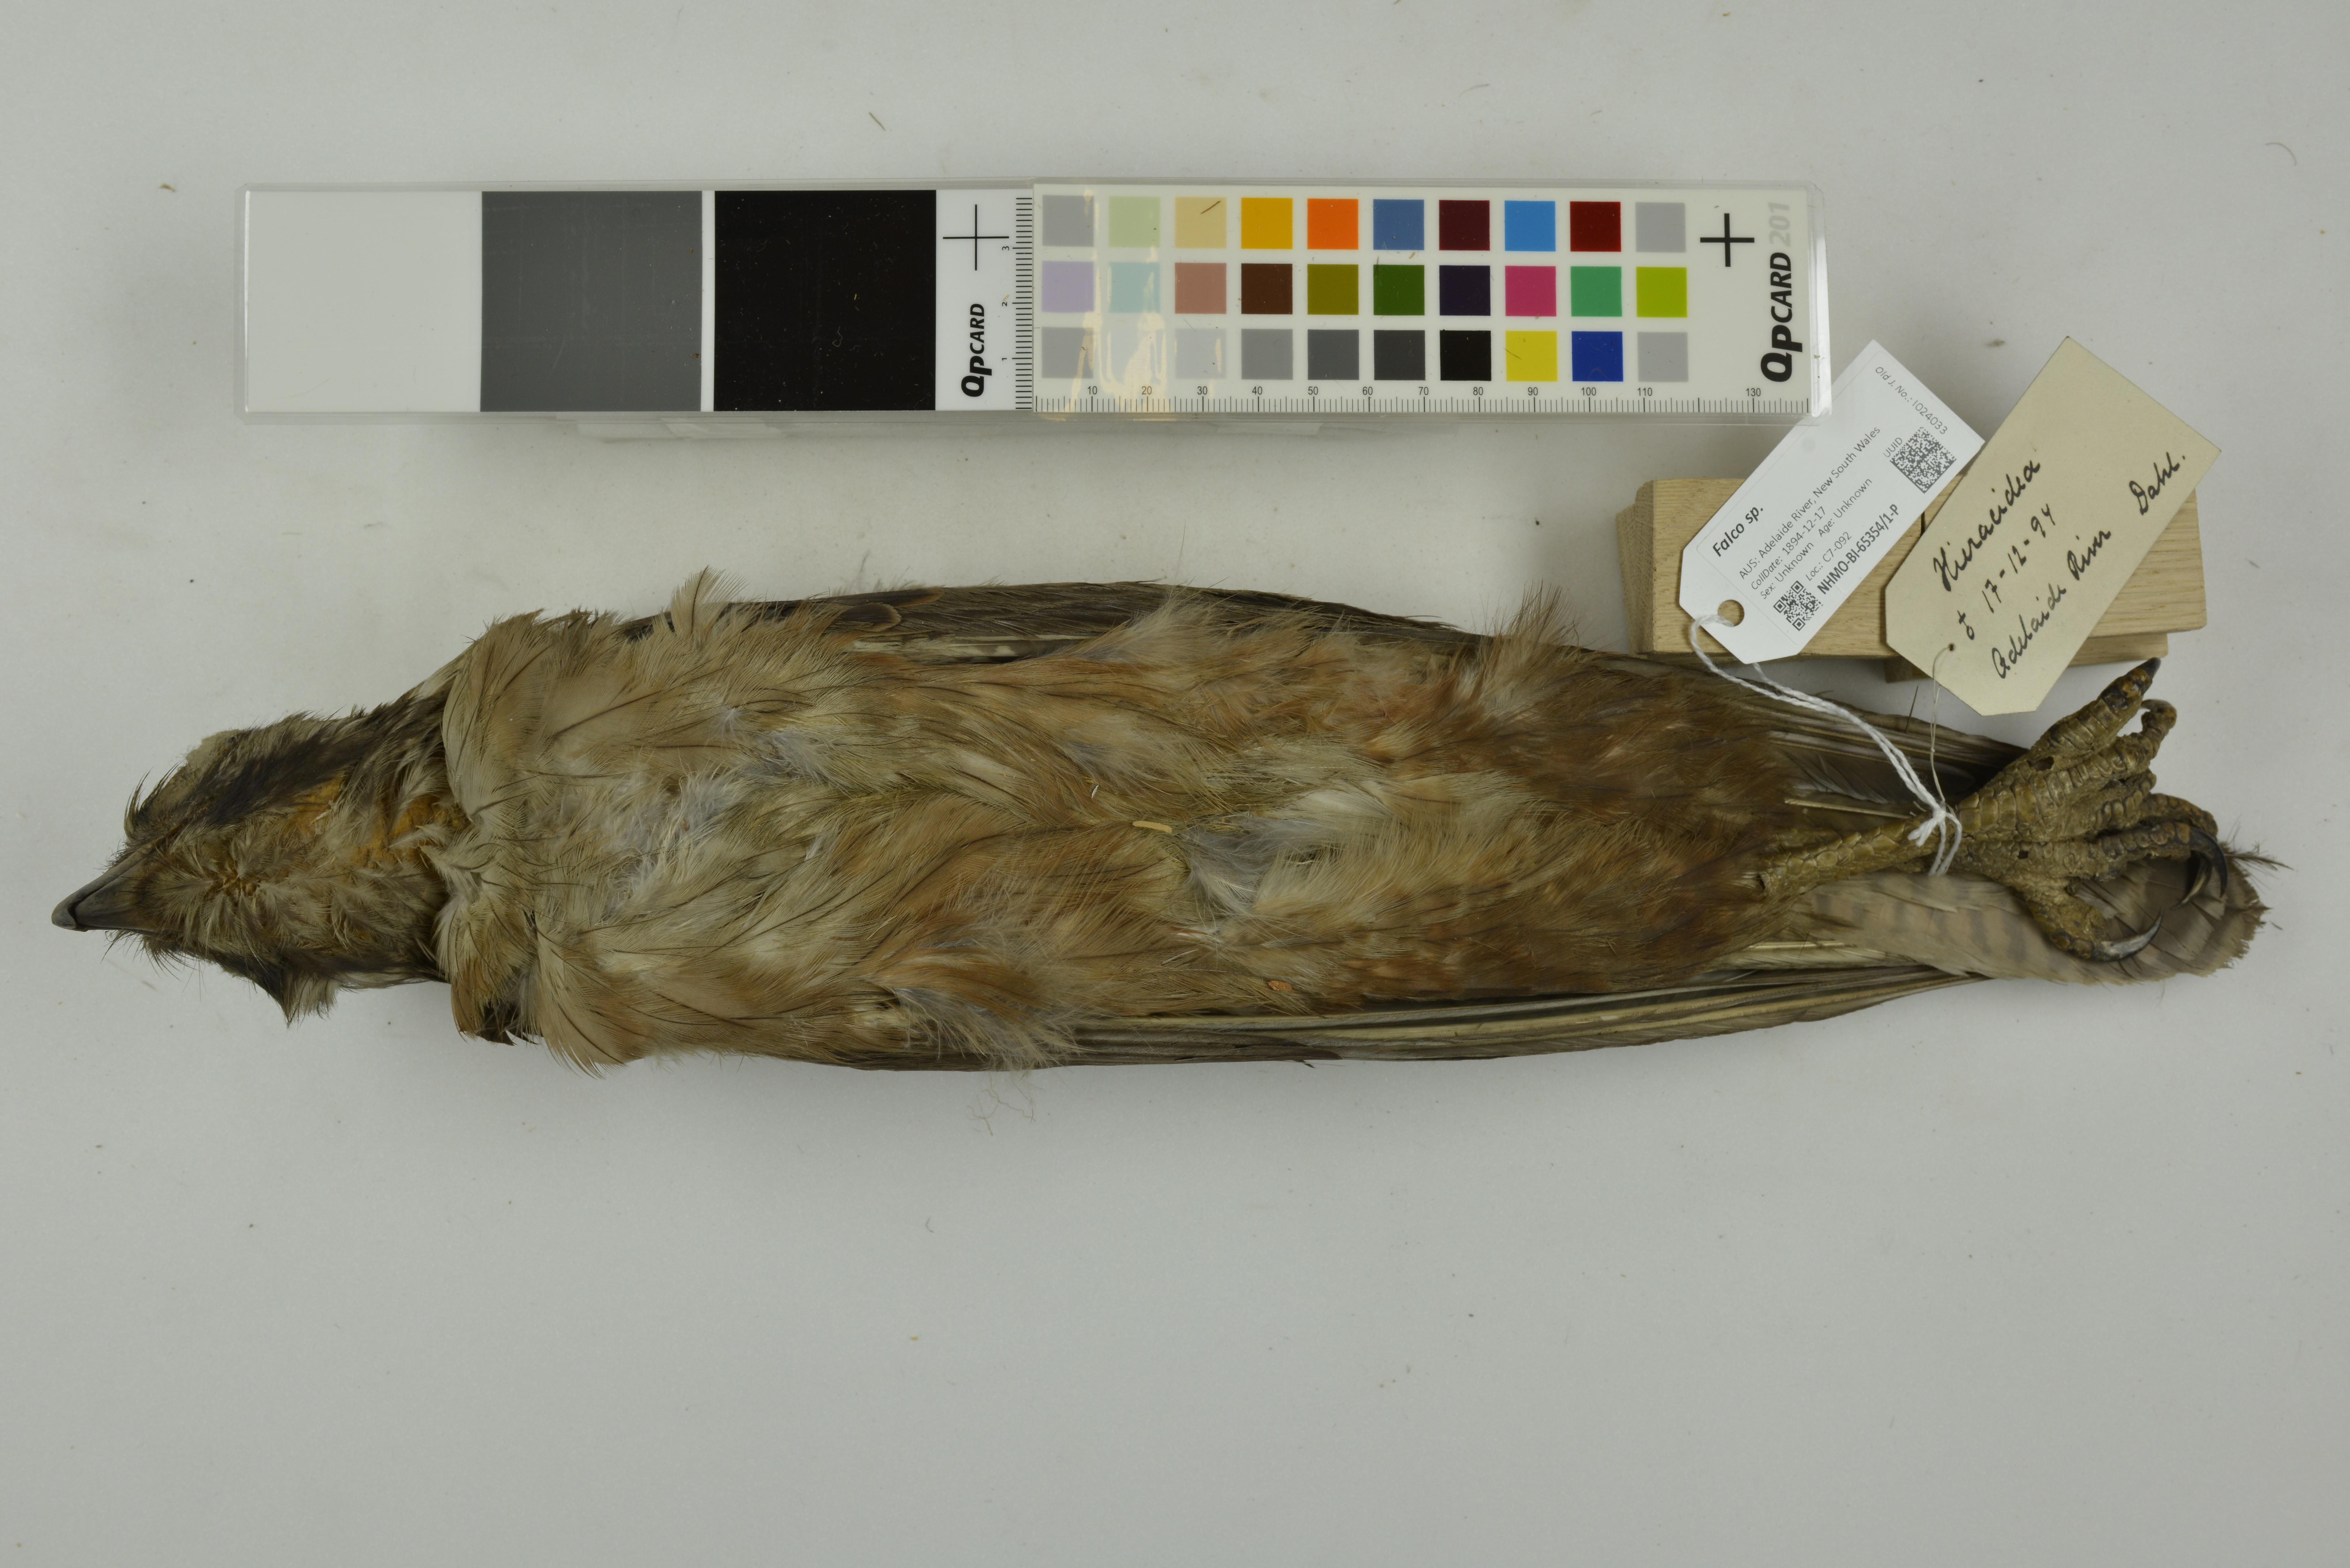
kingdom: Animalia
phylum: Chordata
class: Aves
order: Falconiformes
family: Falconidae
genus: Falco
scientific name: Falco berigora
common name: Brown falcon
